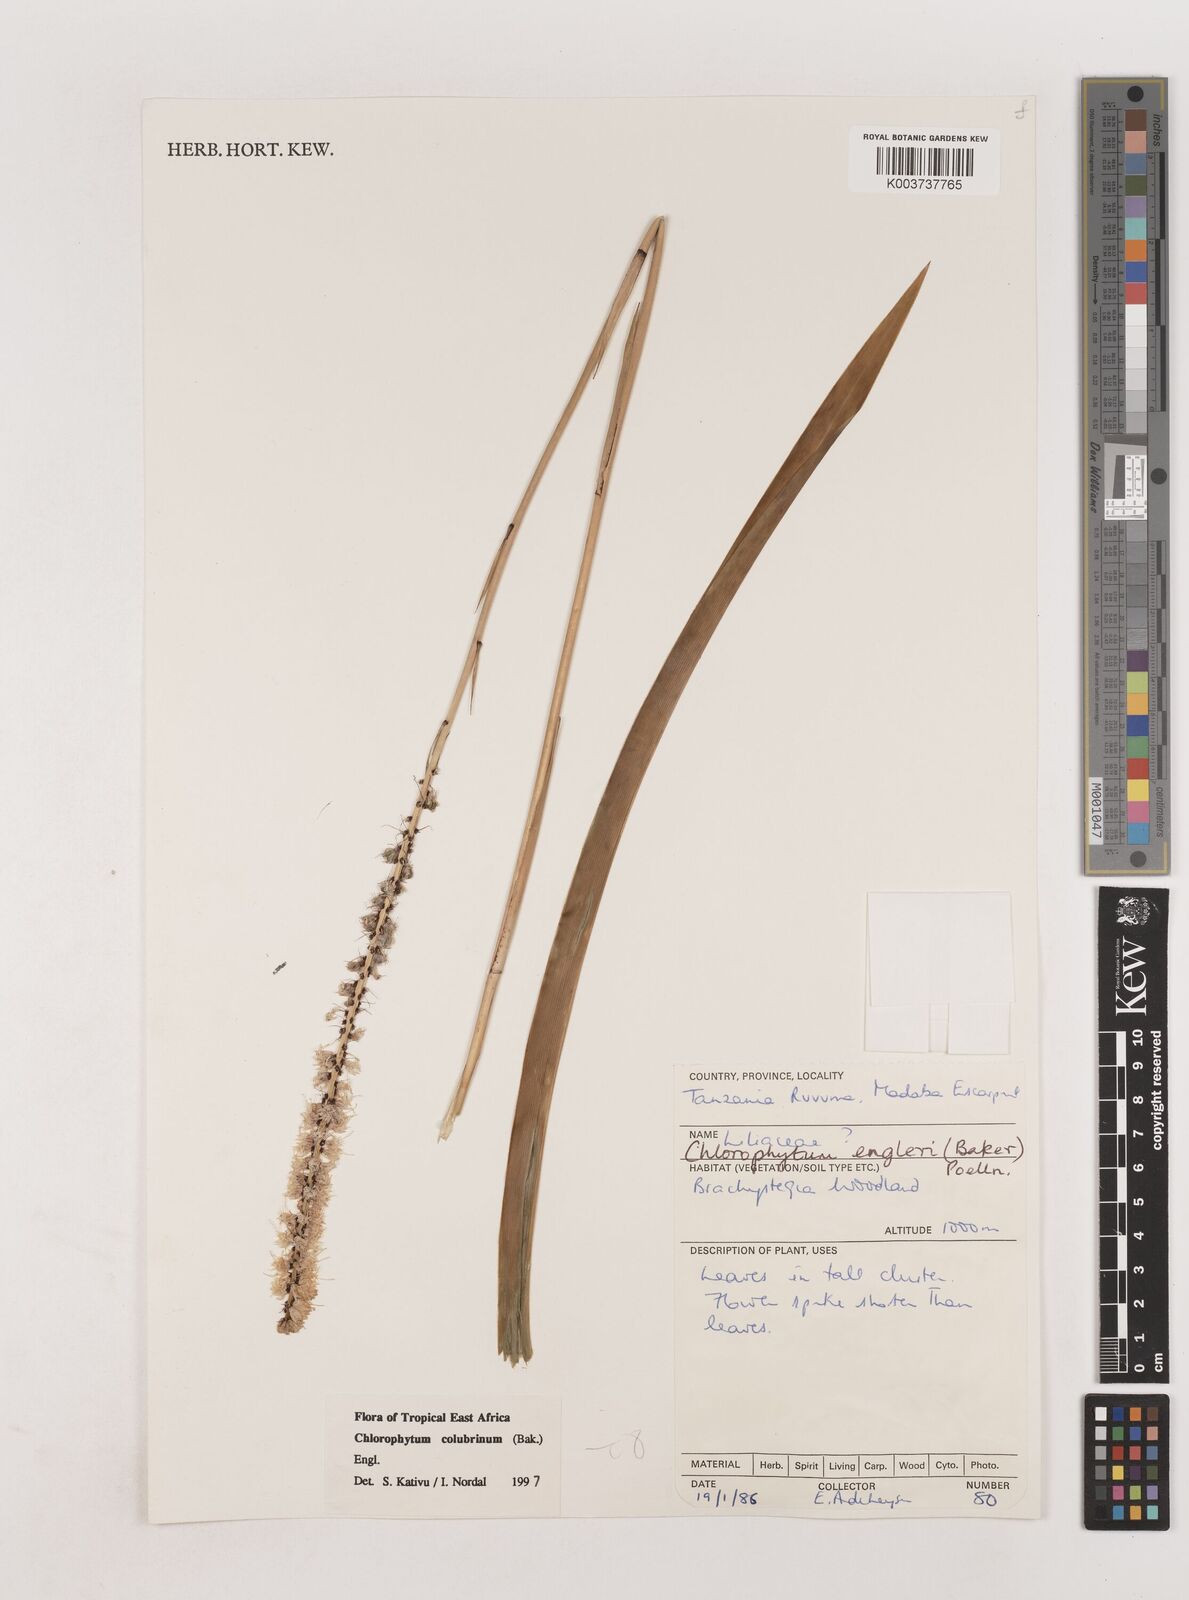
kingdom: Plantae
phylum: Tracheophyta
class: Liliopsida
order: Asparagales
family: Asparagaceae
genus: Chlorophytum
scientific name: Chlorophytum colubrinum
